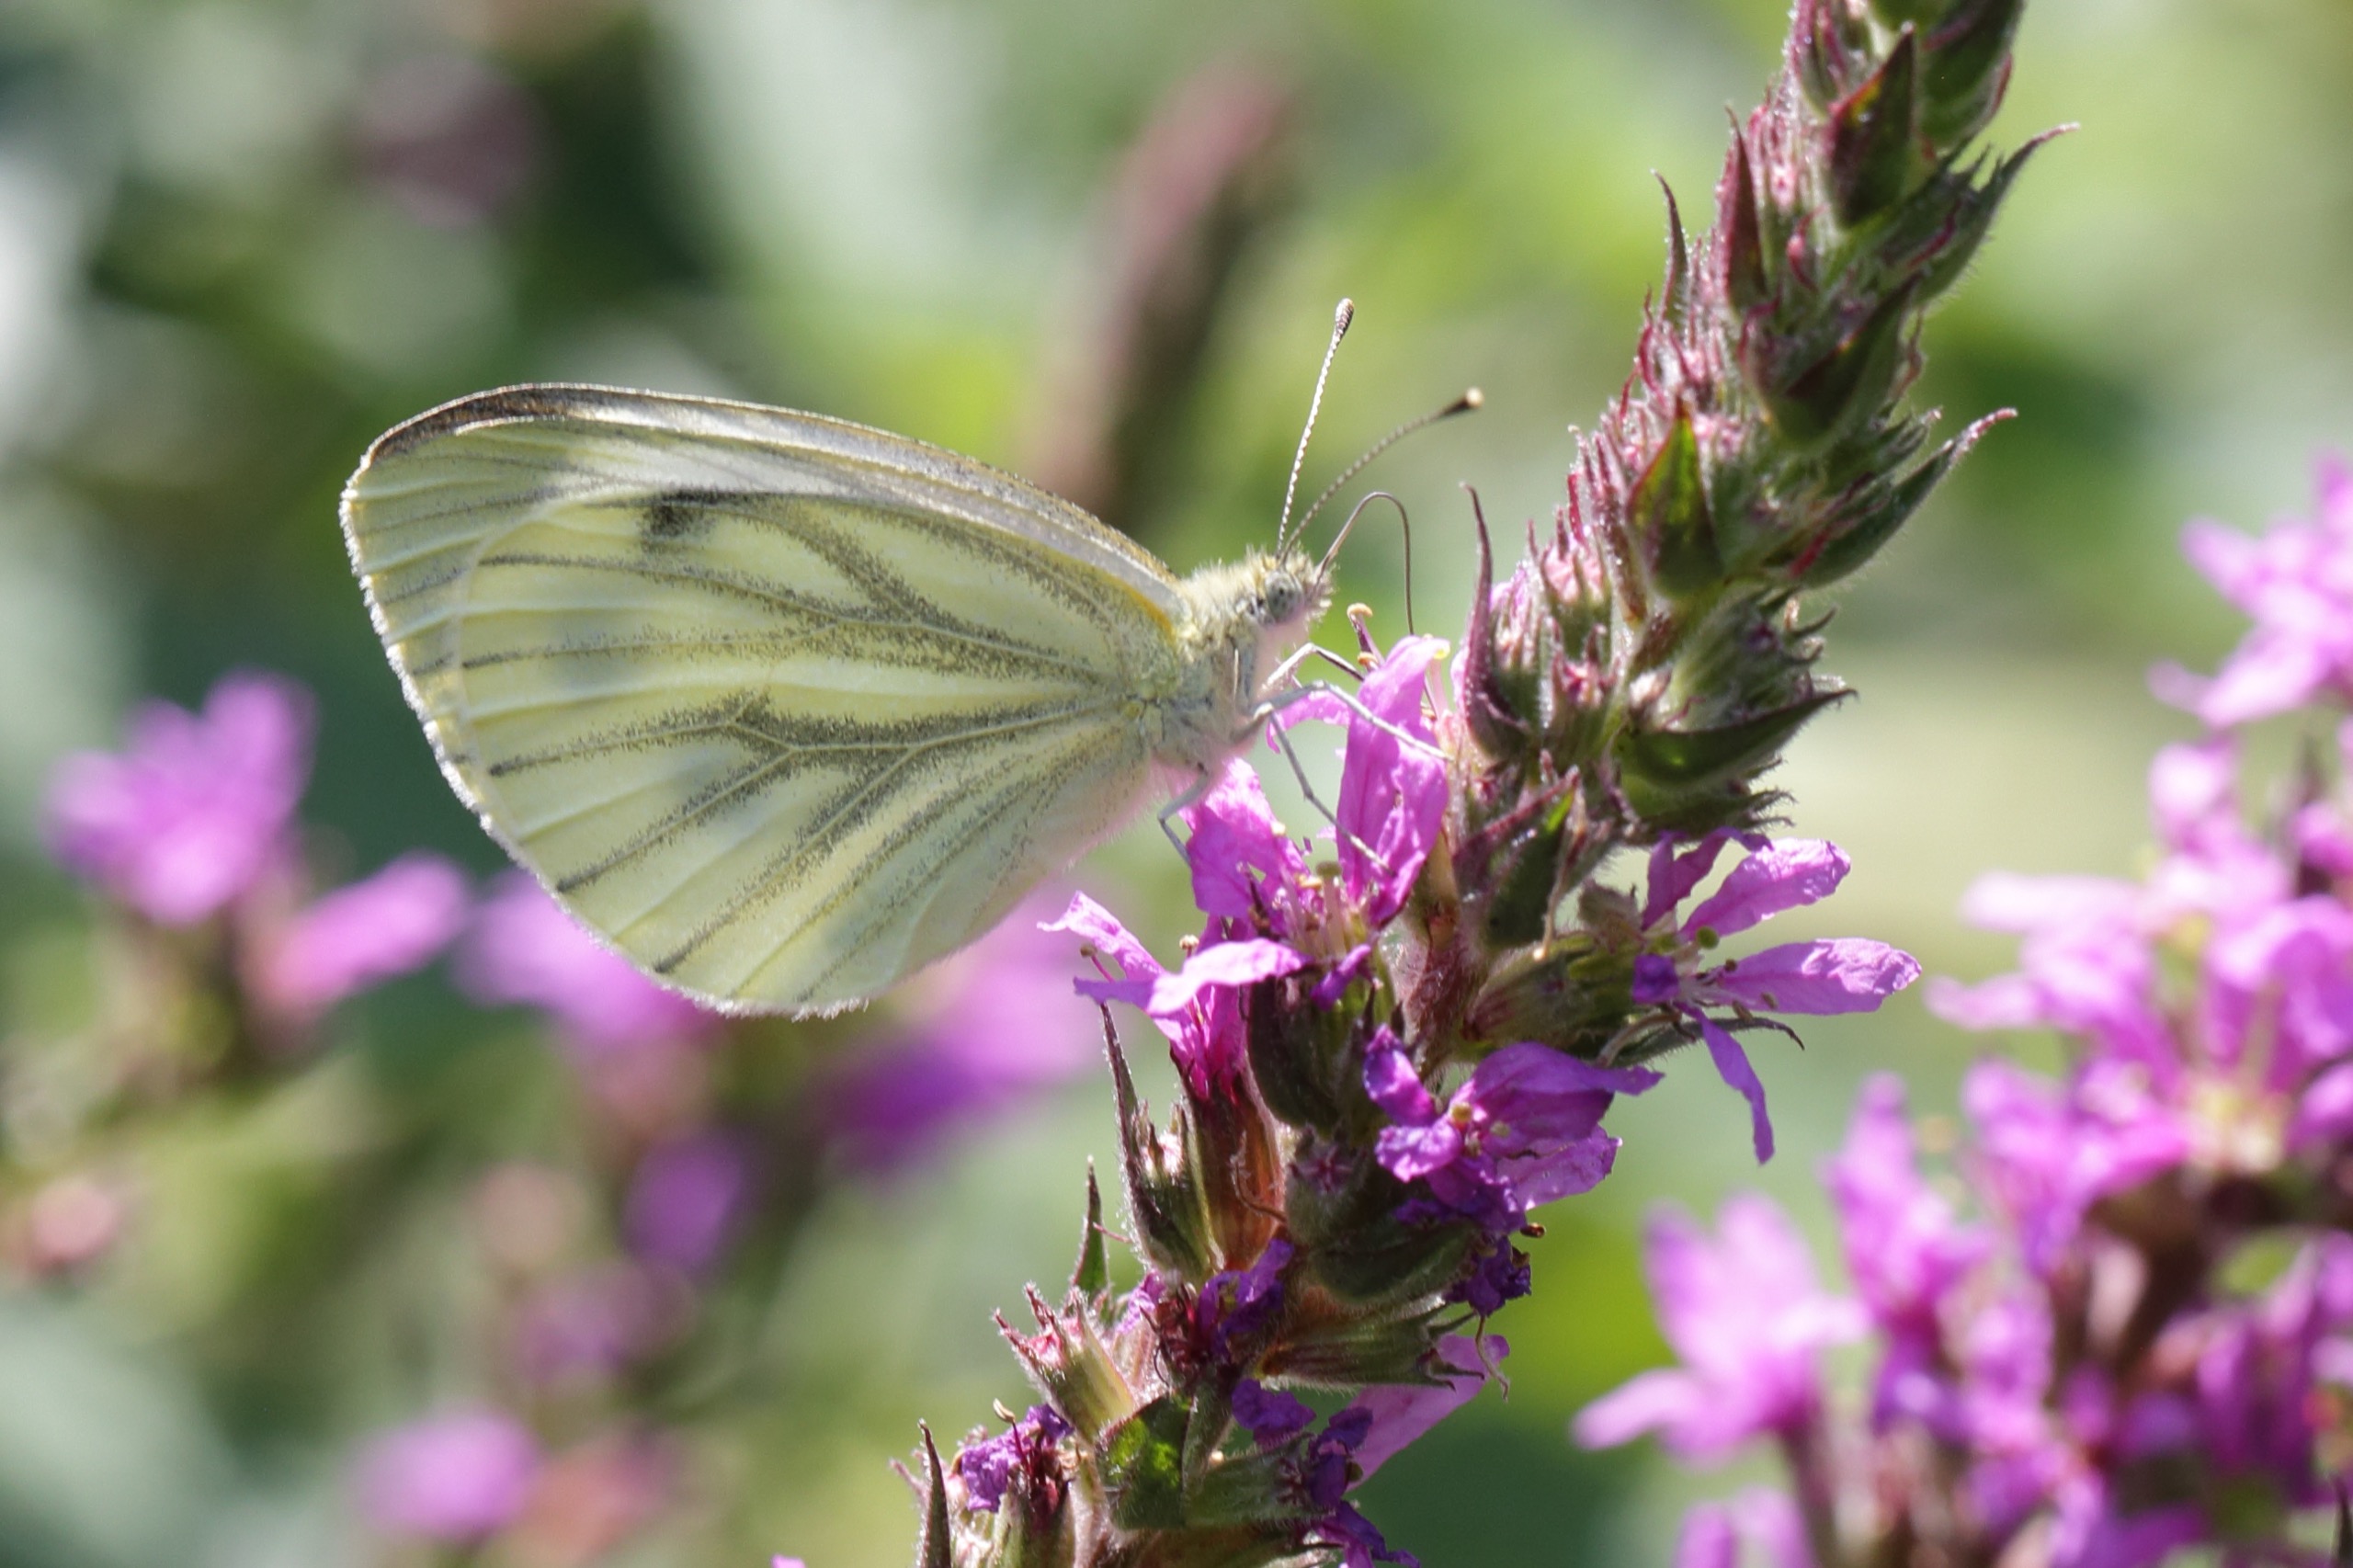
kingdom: Animalia
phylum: Arthropoda
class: Insecta
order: Lepidoptera
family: Pieridae
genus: Pieris
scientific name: Pieris napi
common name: Grønåret kålsommerfugl
